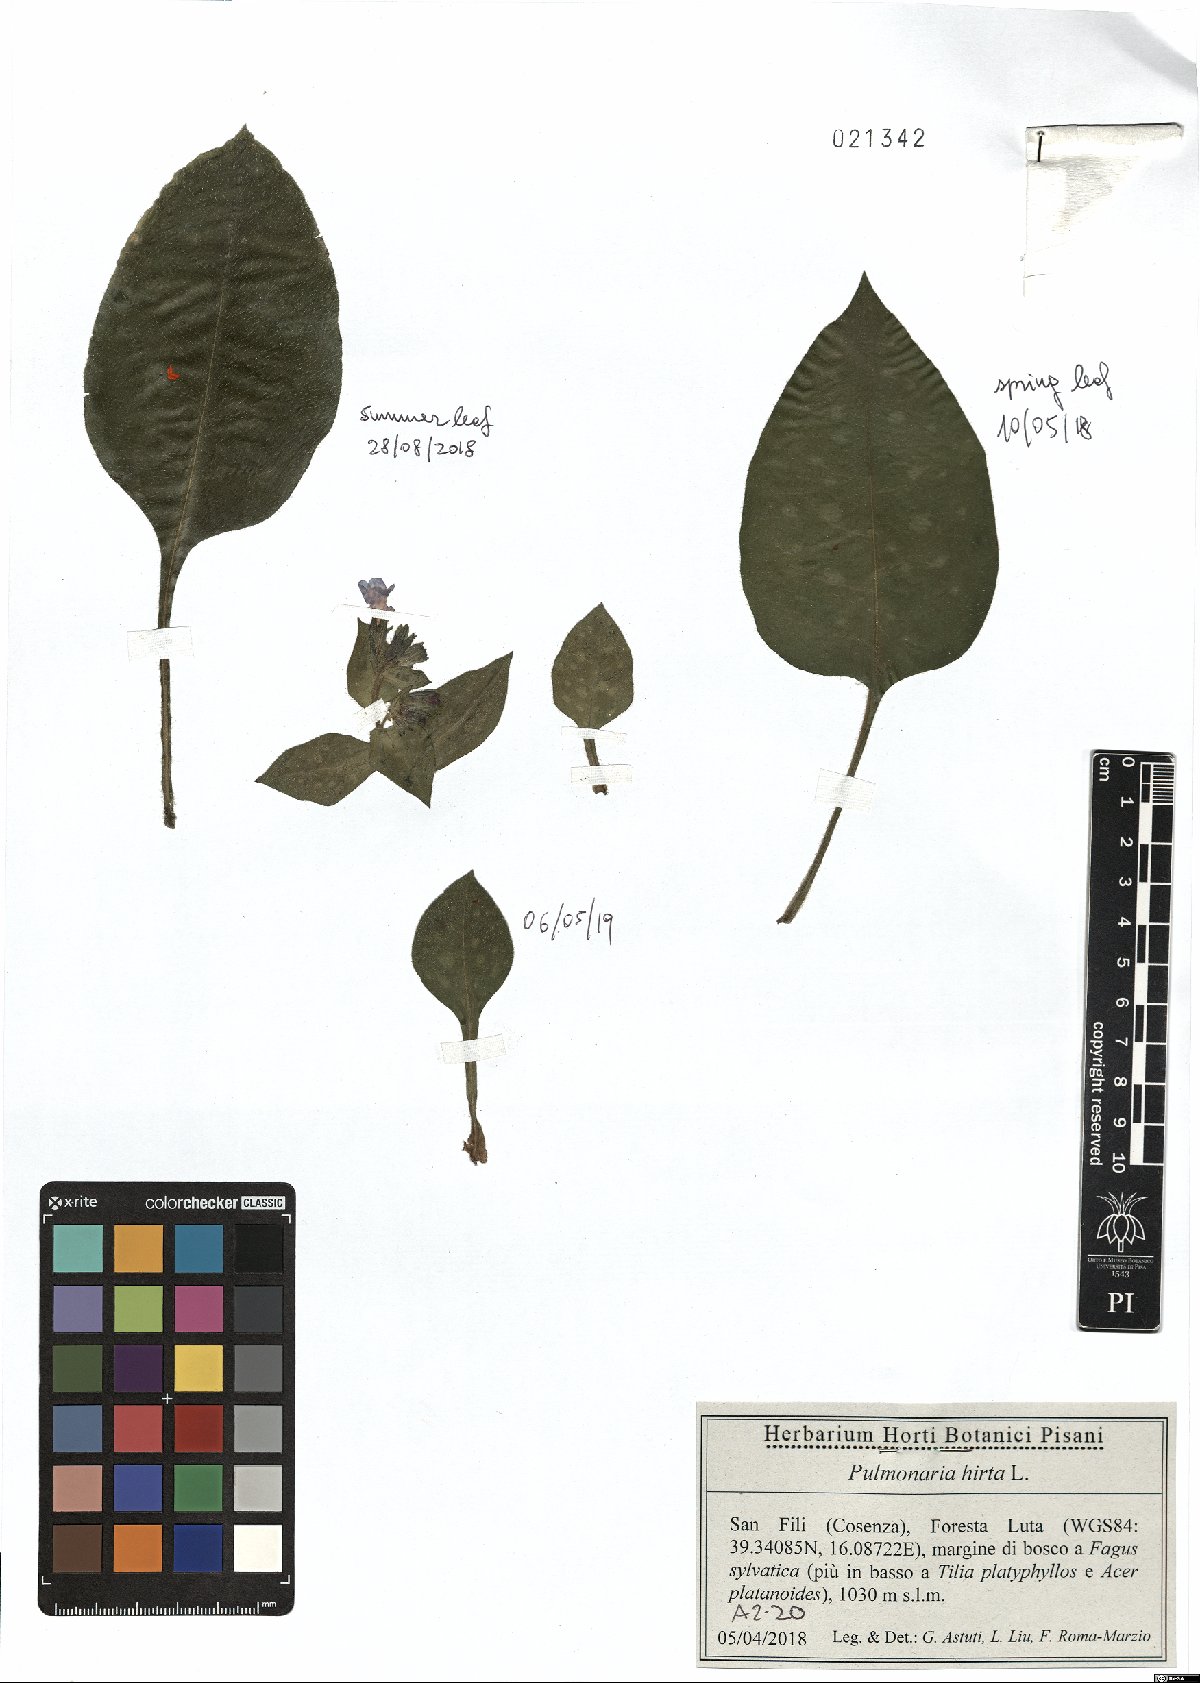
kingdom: Plantae
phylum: Tracheophyta
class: Magnoliopsida
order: Boraginales
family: Boraginaceae
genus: Pulmonaria
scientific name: Pulmonaria hirta
